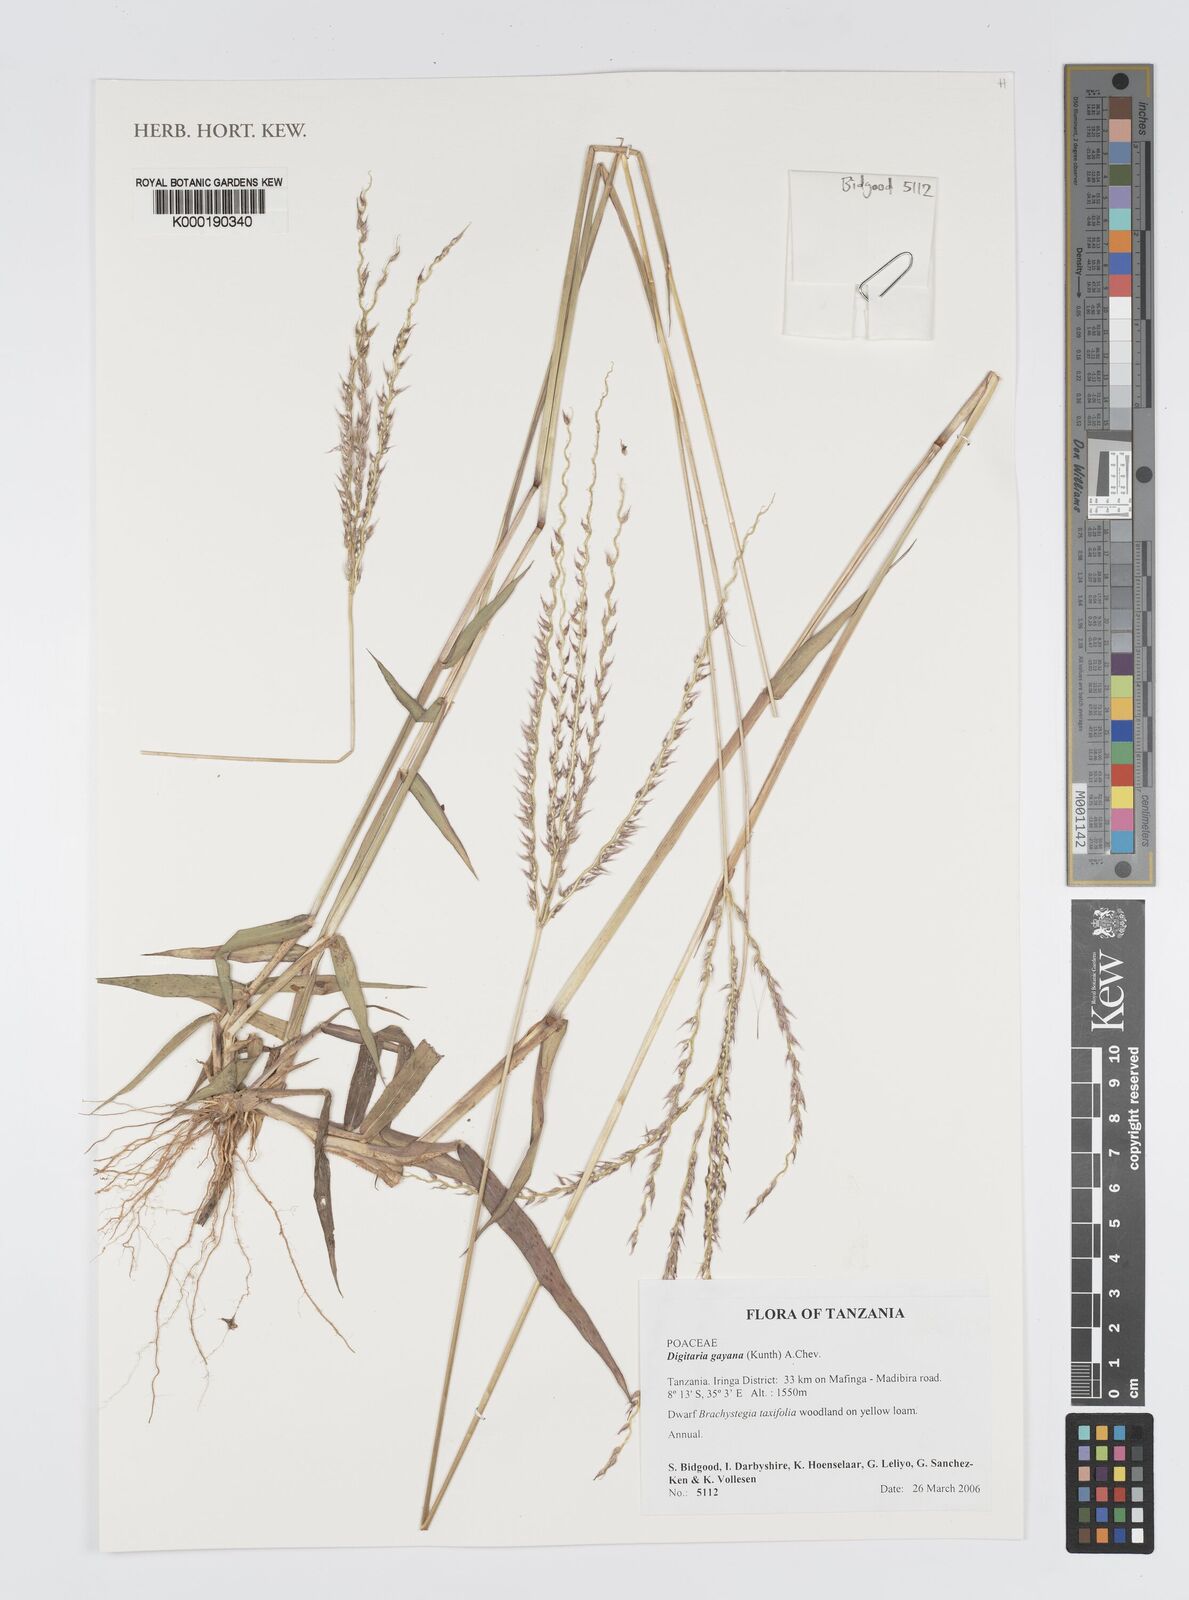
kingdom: Plantae
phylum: Tracheophyta
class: Liliopsida
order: Poales
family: Poaceae
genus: Digitaria
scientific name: Digitaria gayana
